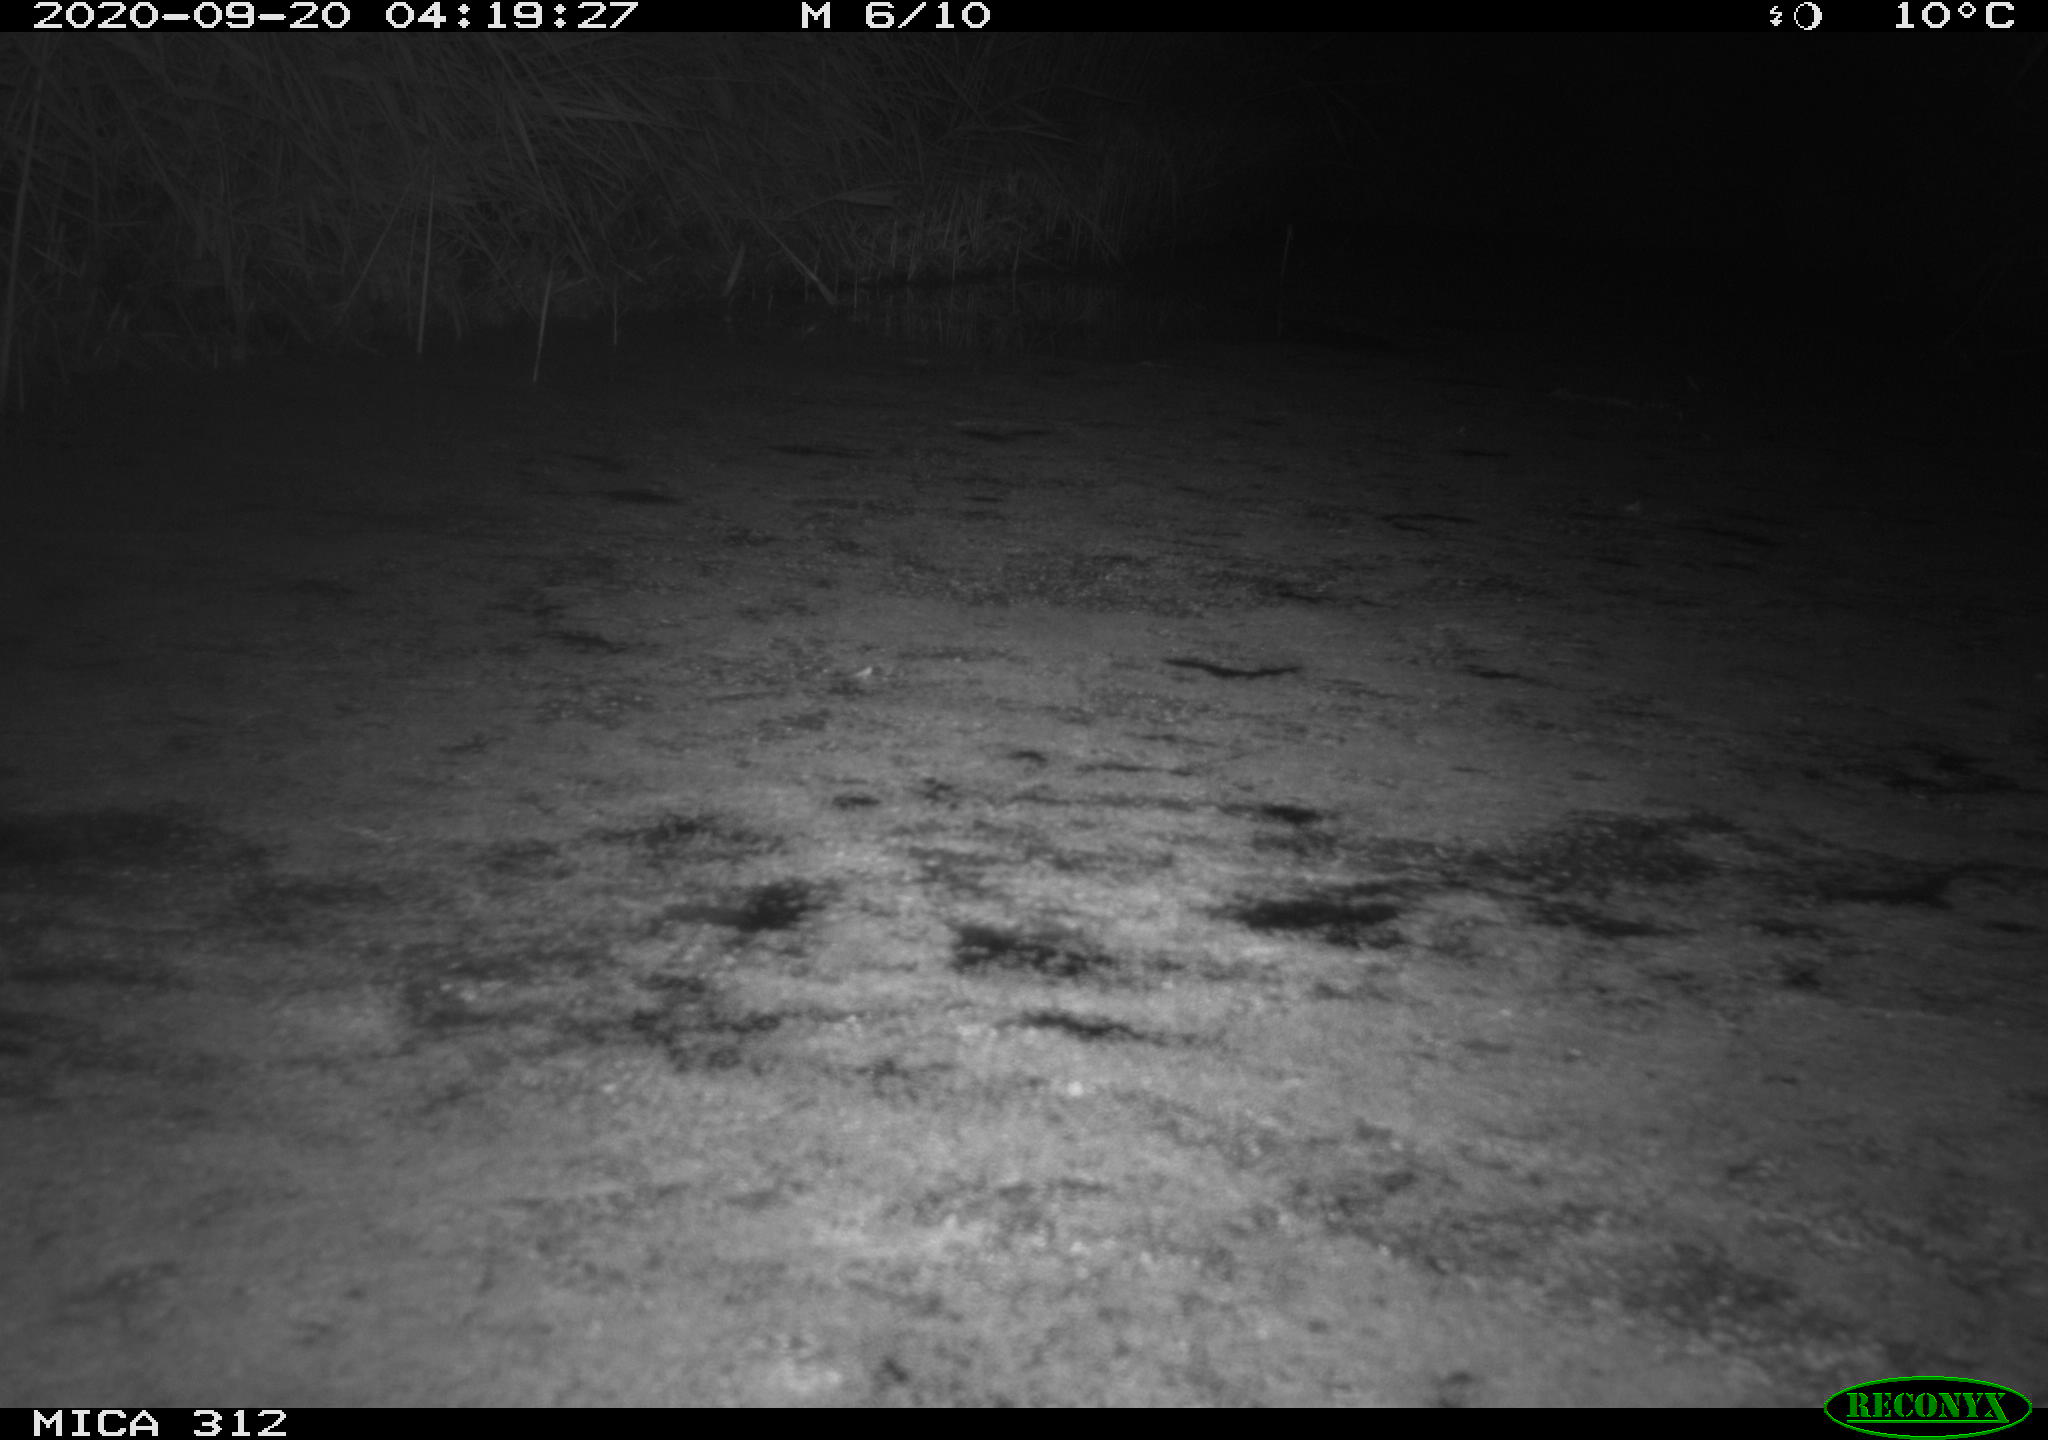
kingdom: Animalia
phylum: Chordata
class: Mammalia
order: Rodentia
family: Muridae
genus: Rattus
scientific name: Rattus norvegicus
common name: Brown rat
